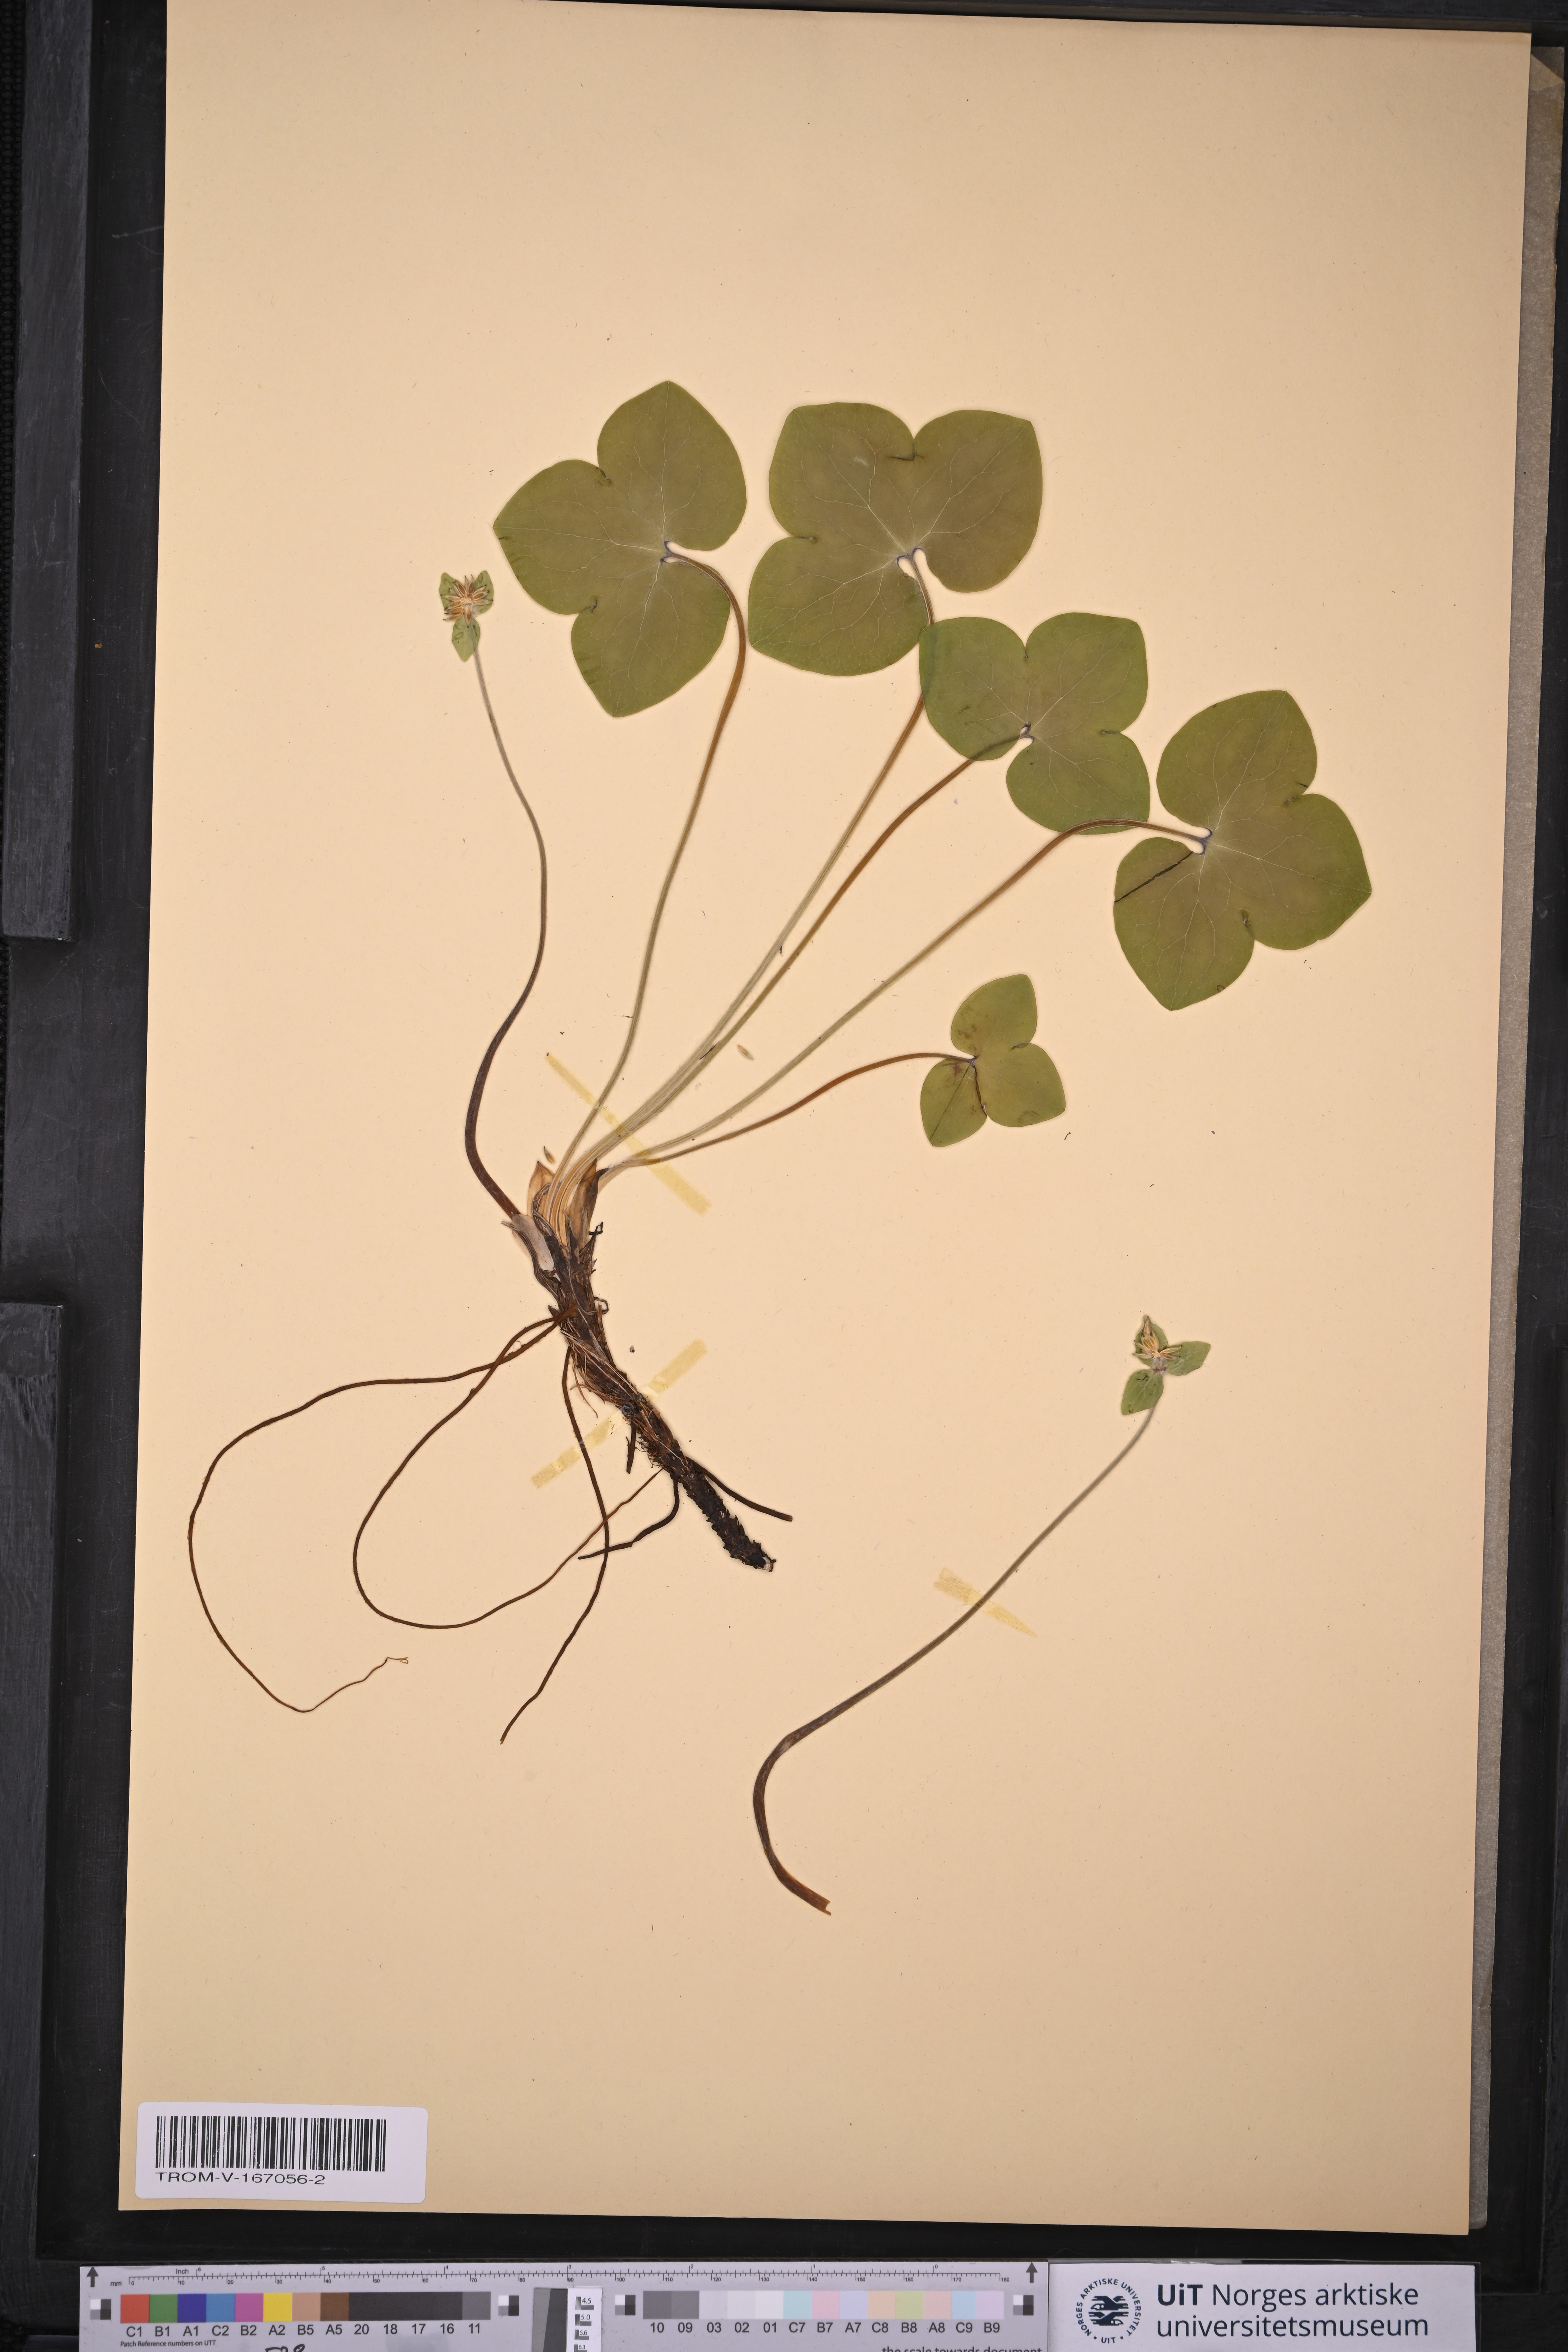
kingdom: Plantae
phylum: Tracheophyta
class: Magnoliopsida
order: Ranunculales
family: Ranunculaceae
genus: Hepatica
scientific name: Hepatica nobilis
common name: Liverleaf
